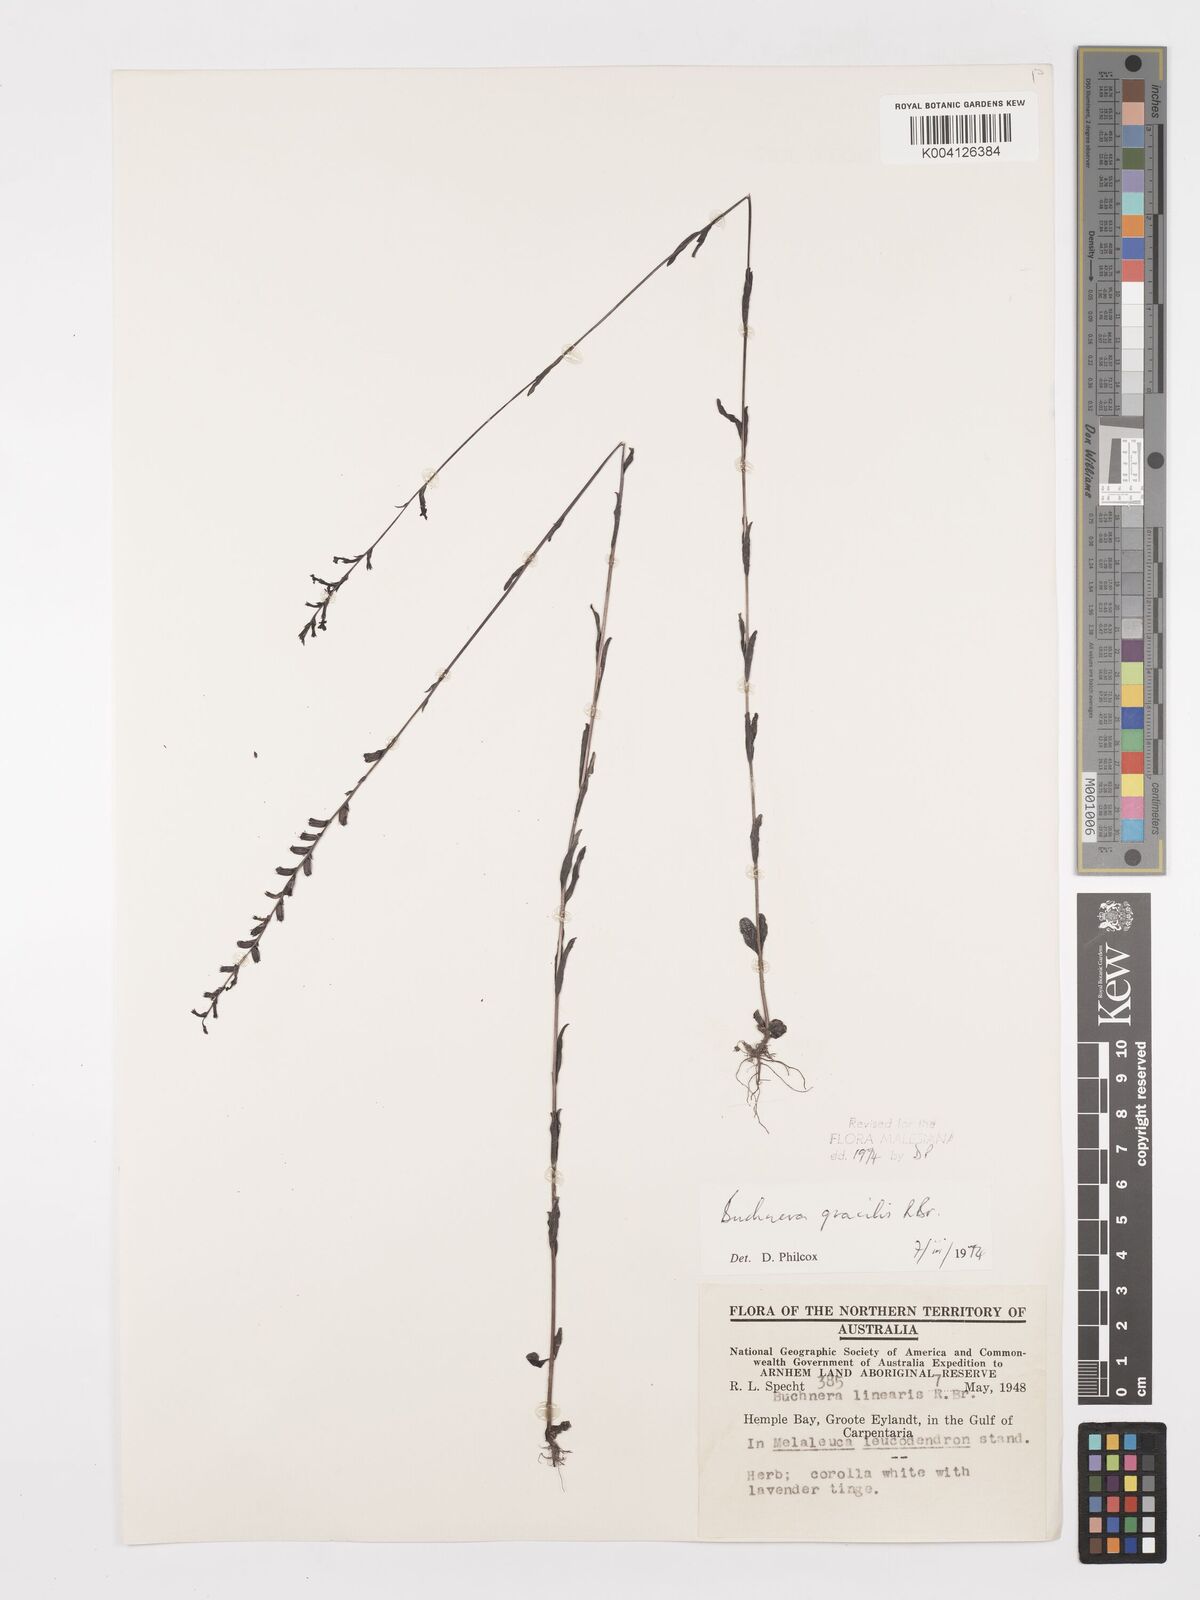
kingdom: Plantae
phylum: Tracheophyta
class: Magnoliopsida
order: Lamiales
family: Orobanchaceae
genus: Buchnera
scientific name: Buchnera gracilis
